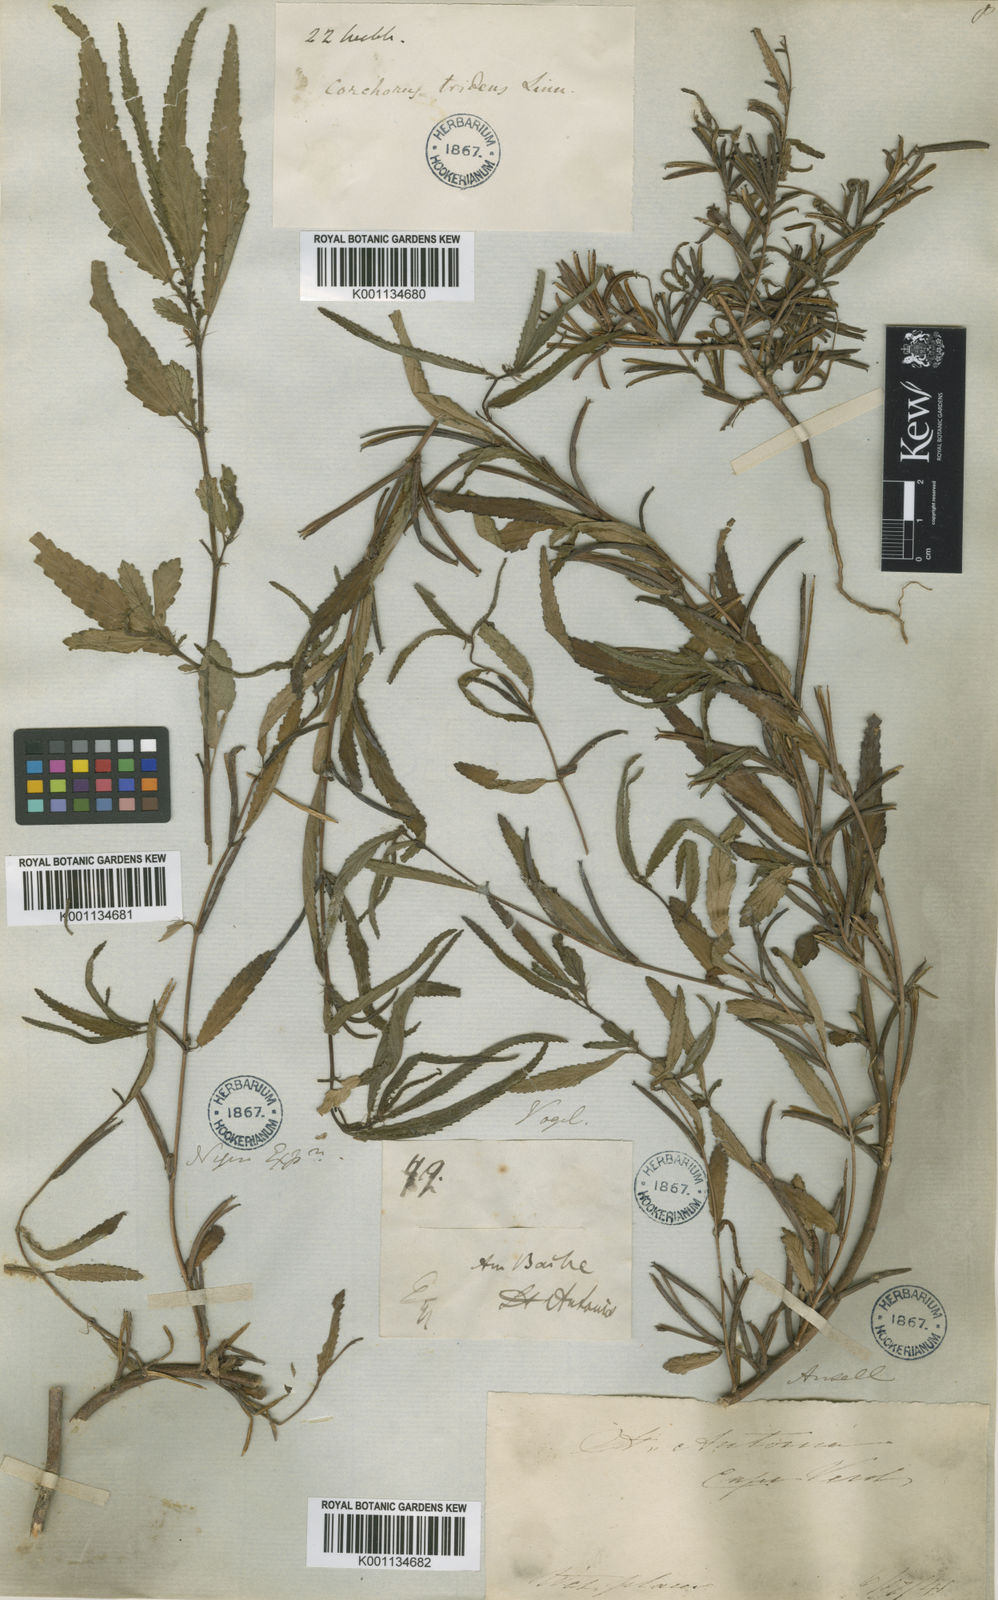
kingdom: Plantae
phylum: Tracheophyta
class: Magnoliopsida
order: Malvales
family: Malvaceae
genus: Corchorus
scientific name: Corchorus tridens
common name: Wild jute
